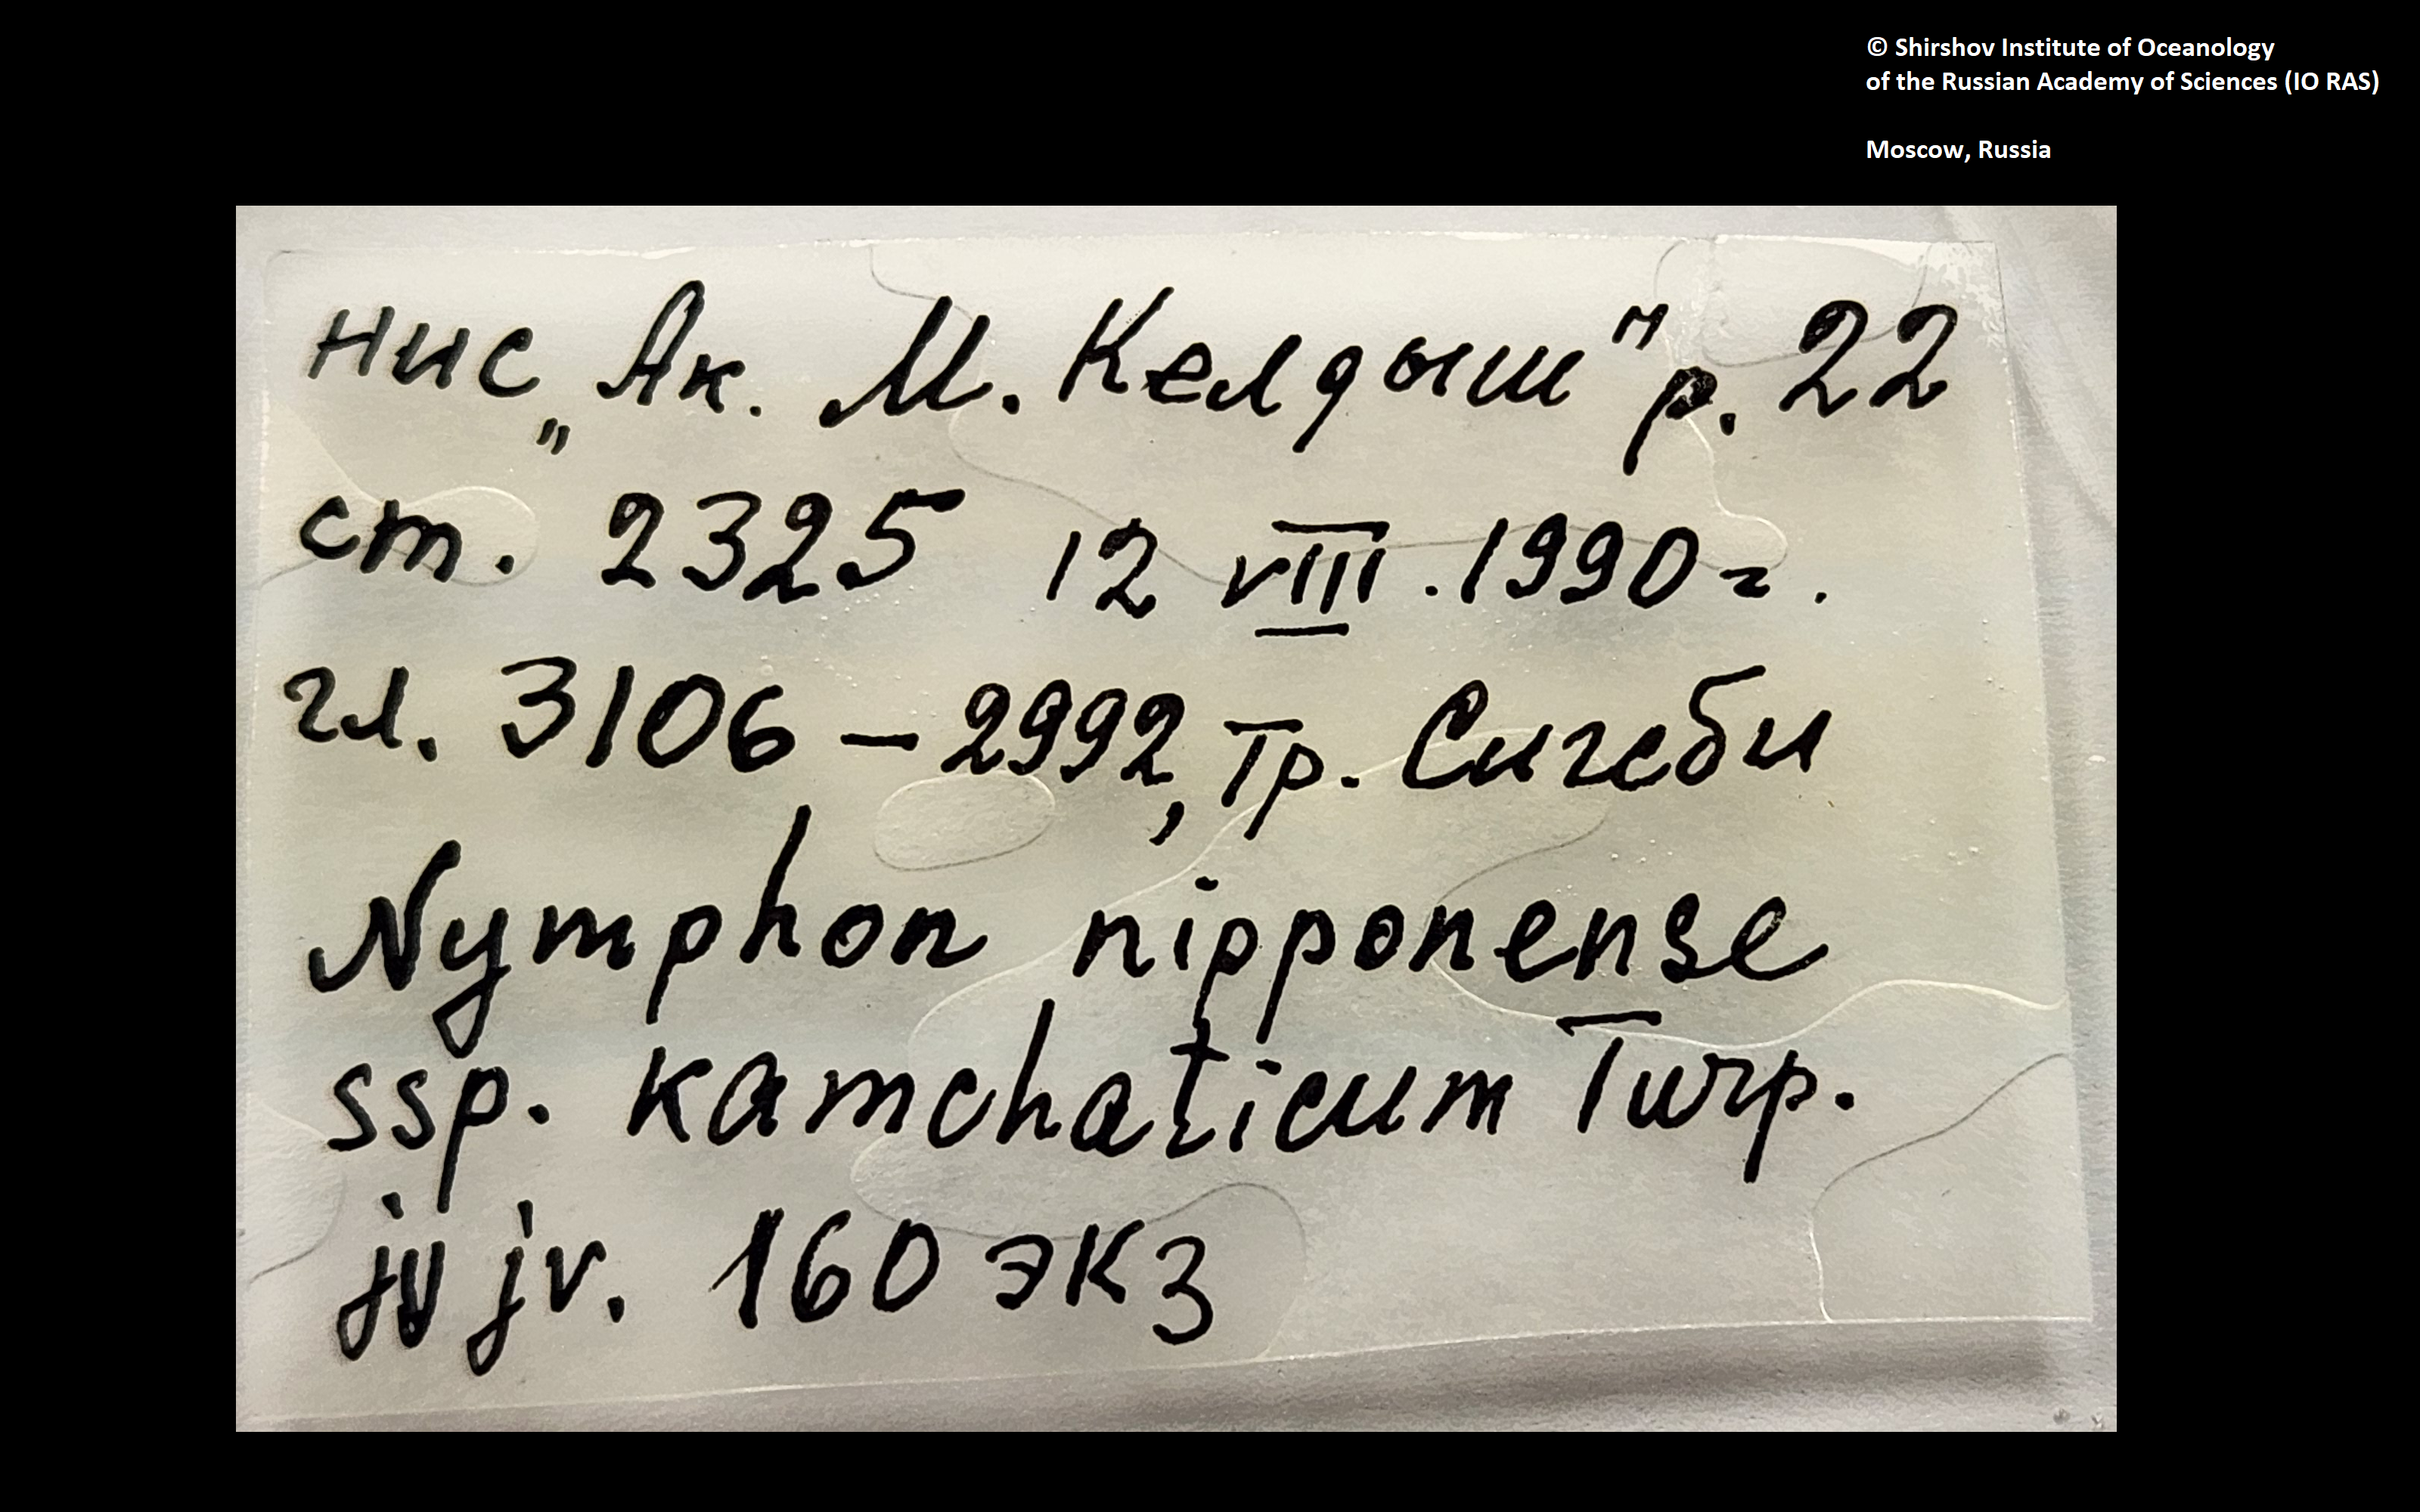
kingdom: Animalia
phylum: Arthropoda
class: Pycnogonida
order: Pantopoda
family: Nymphonidae
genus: Nymphon
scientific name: Nymphon nipponense
